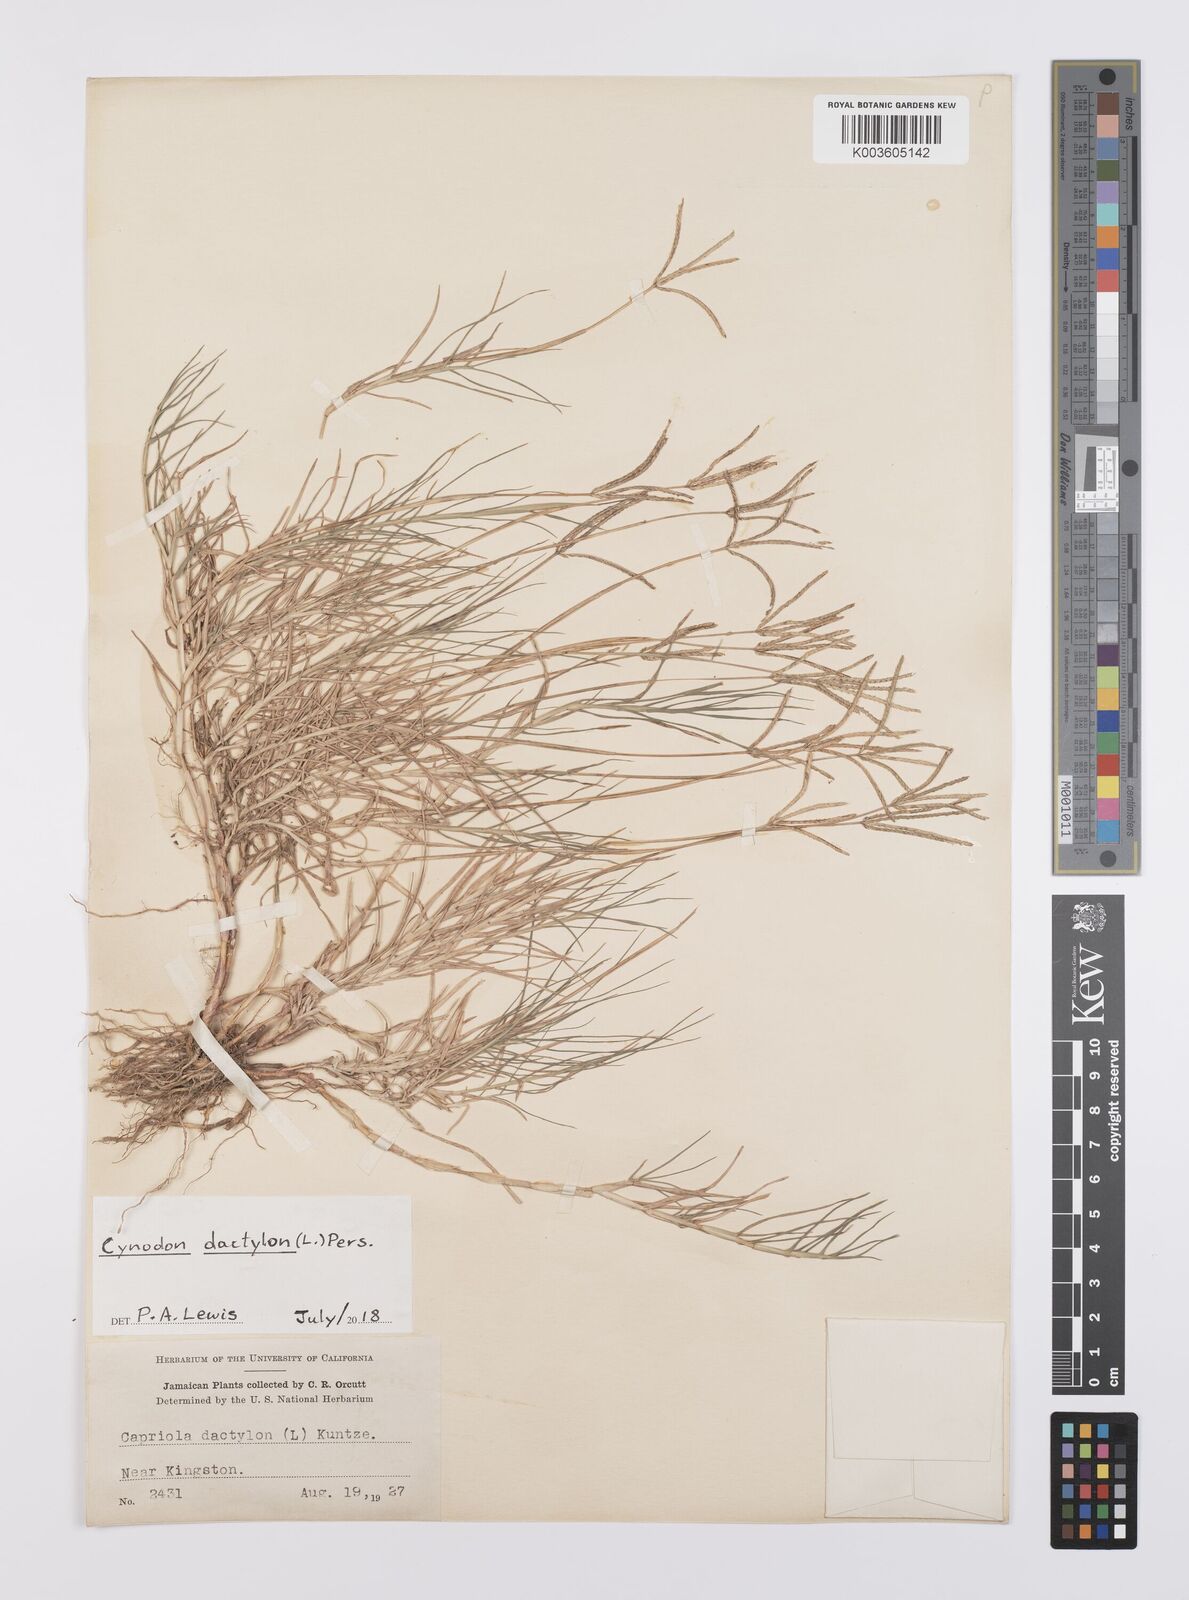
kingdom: Plantae
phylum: Tracheophyta
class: Liliopsida
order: Poales
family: Poaceae
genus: Cynodon
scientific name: Cynodon dactylon
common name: Bermuda grass
